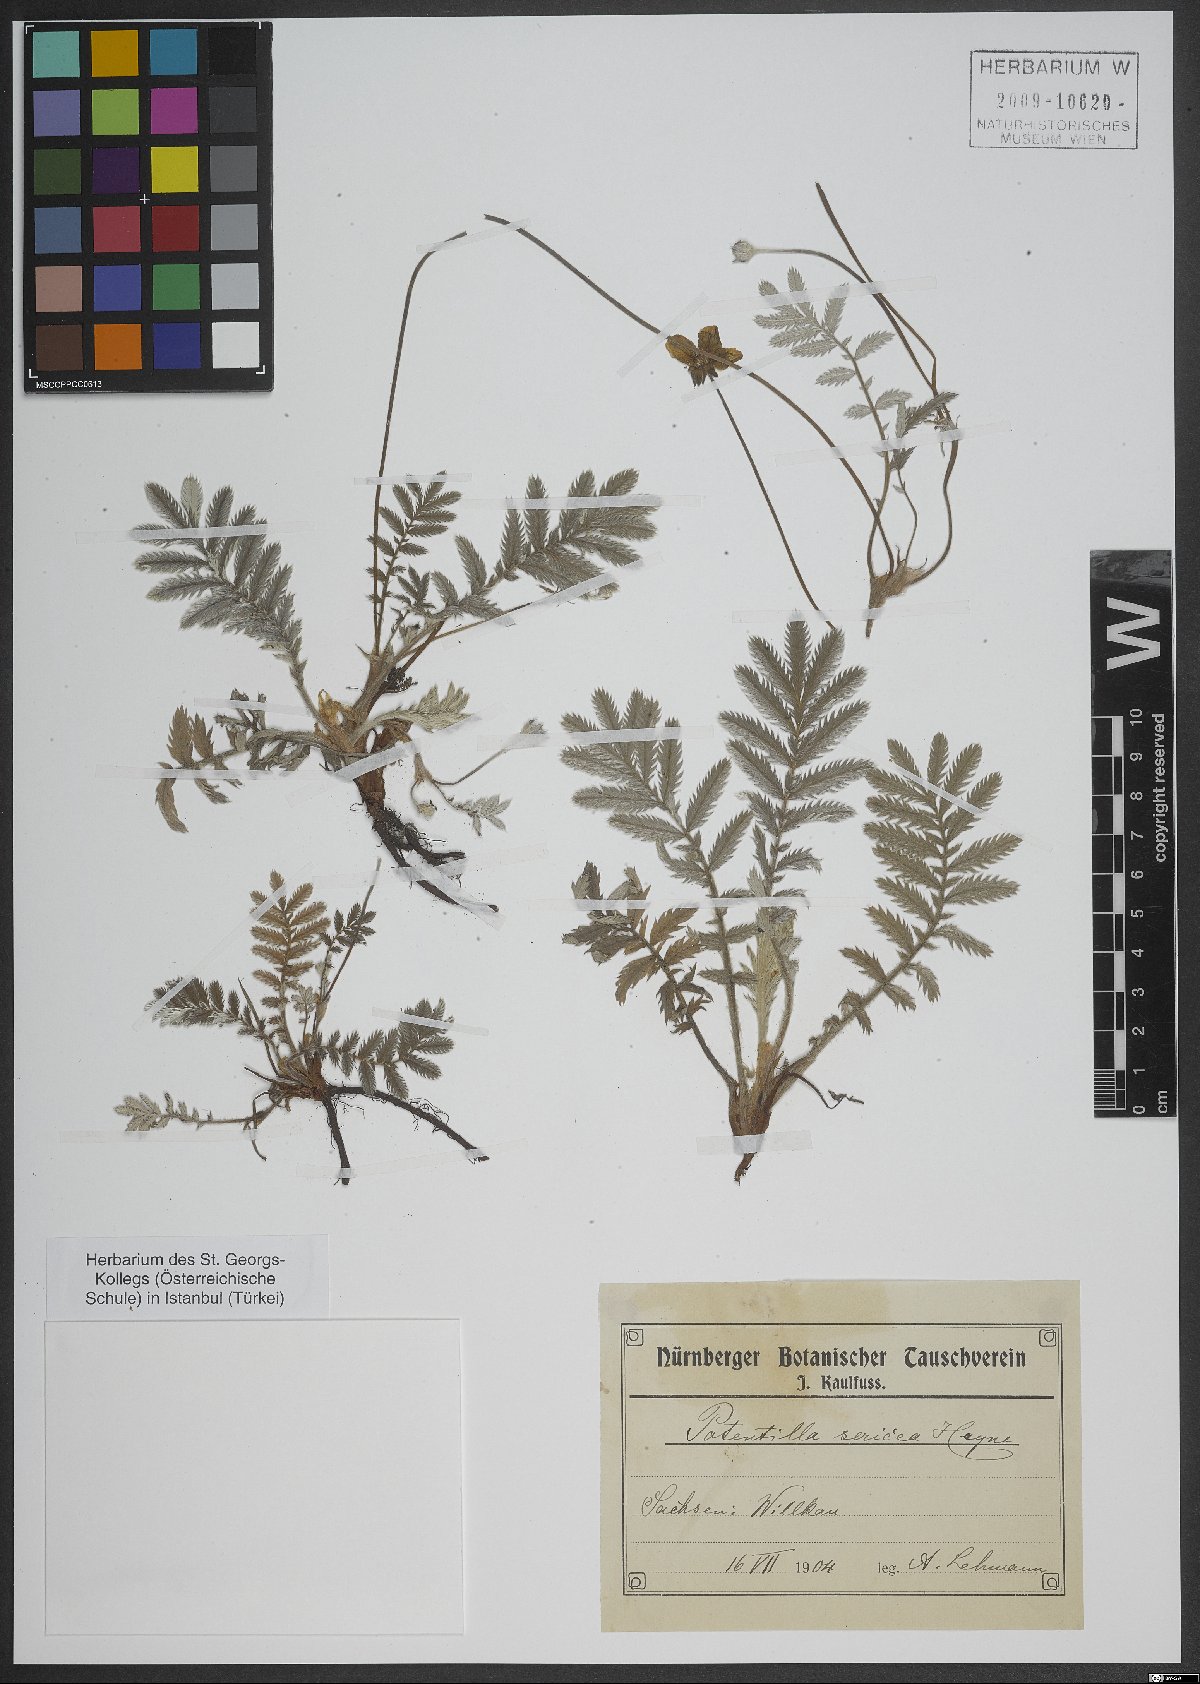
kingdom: Plantae
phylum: Tracheophyta
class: Magnoliopsida
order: Rosales
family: Rosaceae
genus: Potentilla
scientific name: Potentilla sericea
